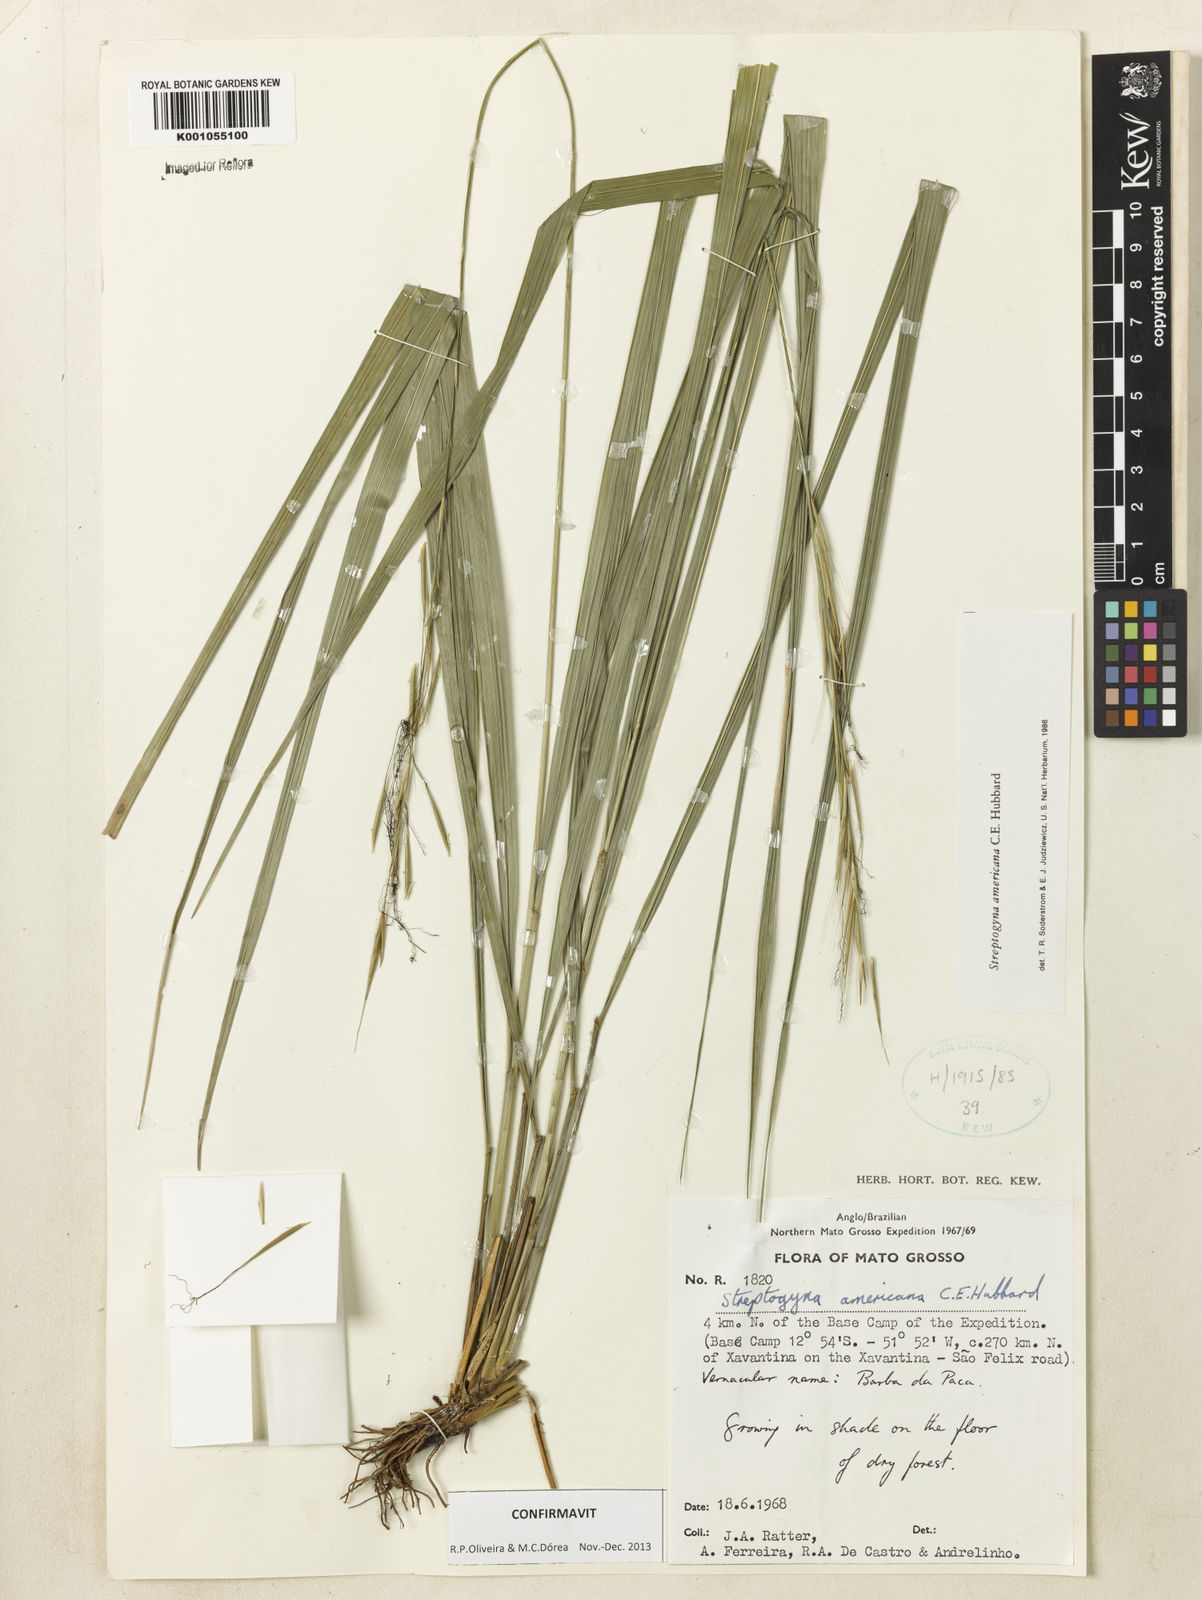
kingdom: Plantae
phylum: Tracheophyta
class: Liliopsida
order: Poales
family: Poaceae
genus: Streptogyna
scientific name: Streptogyna americana
